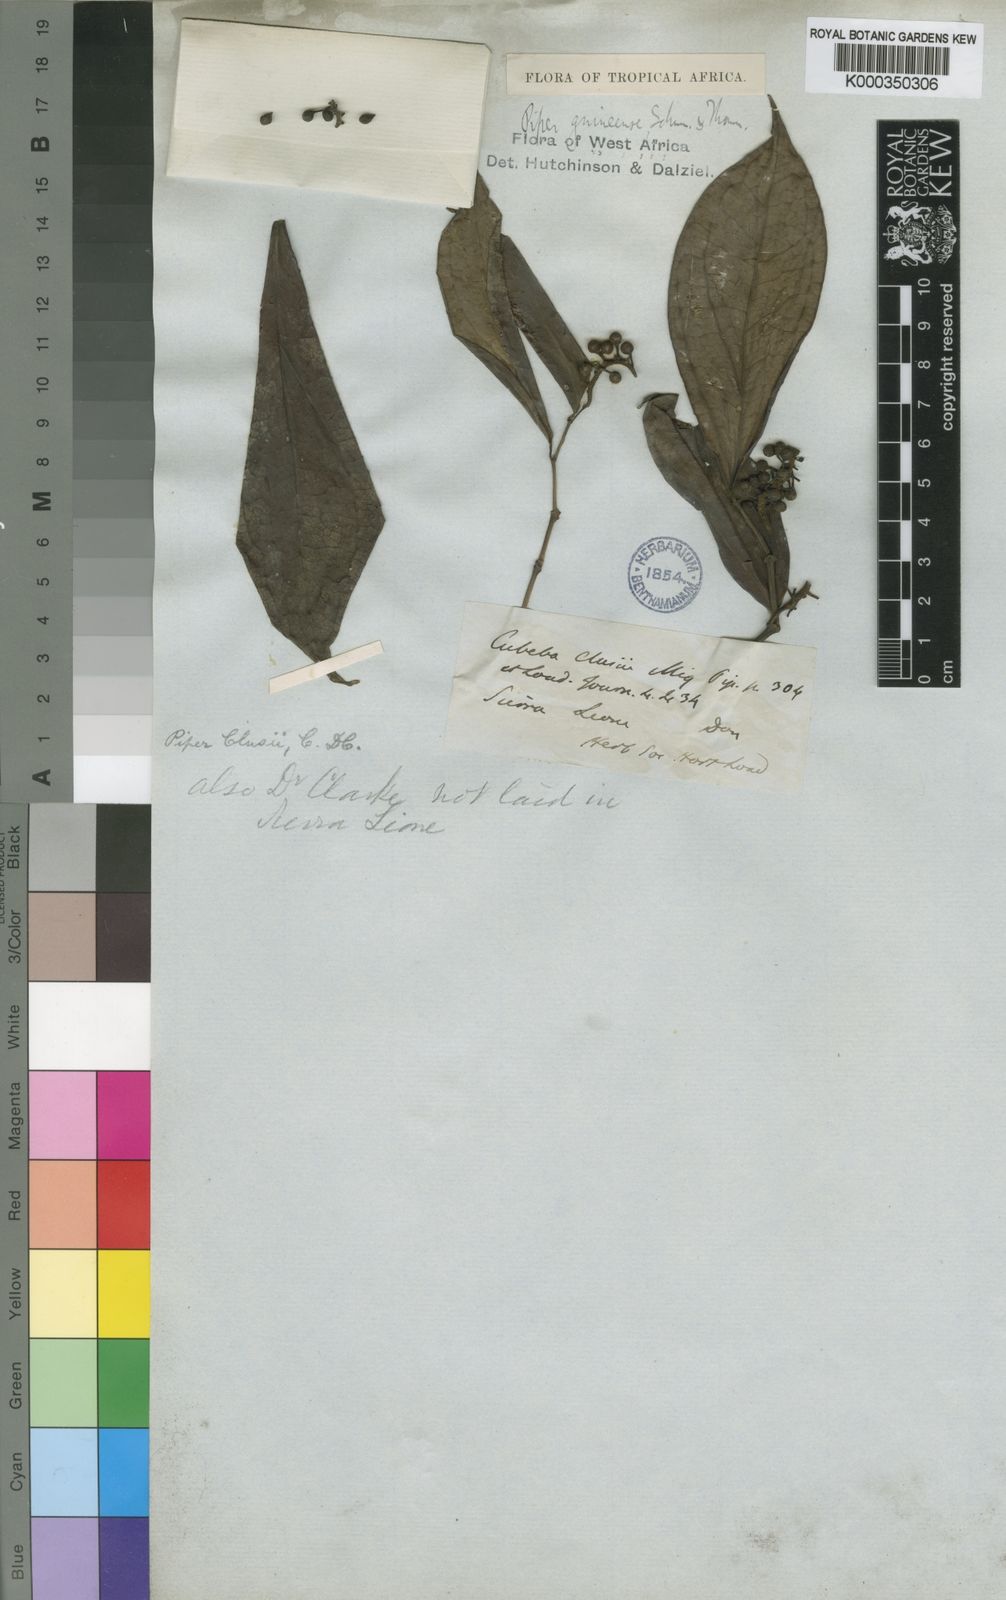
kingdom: Plantae
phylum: Tracheophyta
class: Magnoliopsida
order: Piperales
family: Piperaceae
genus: Piper
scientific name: Piper guineense
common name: Benin pepper
